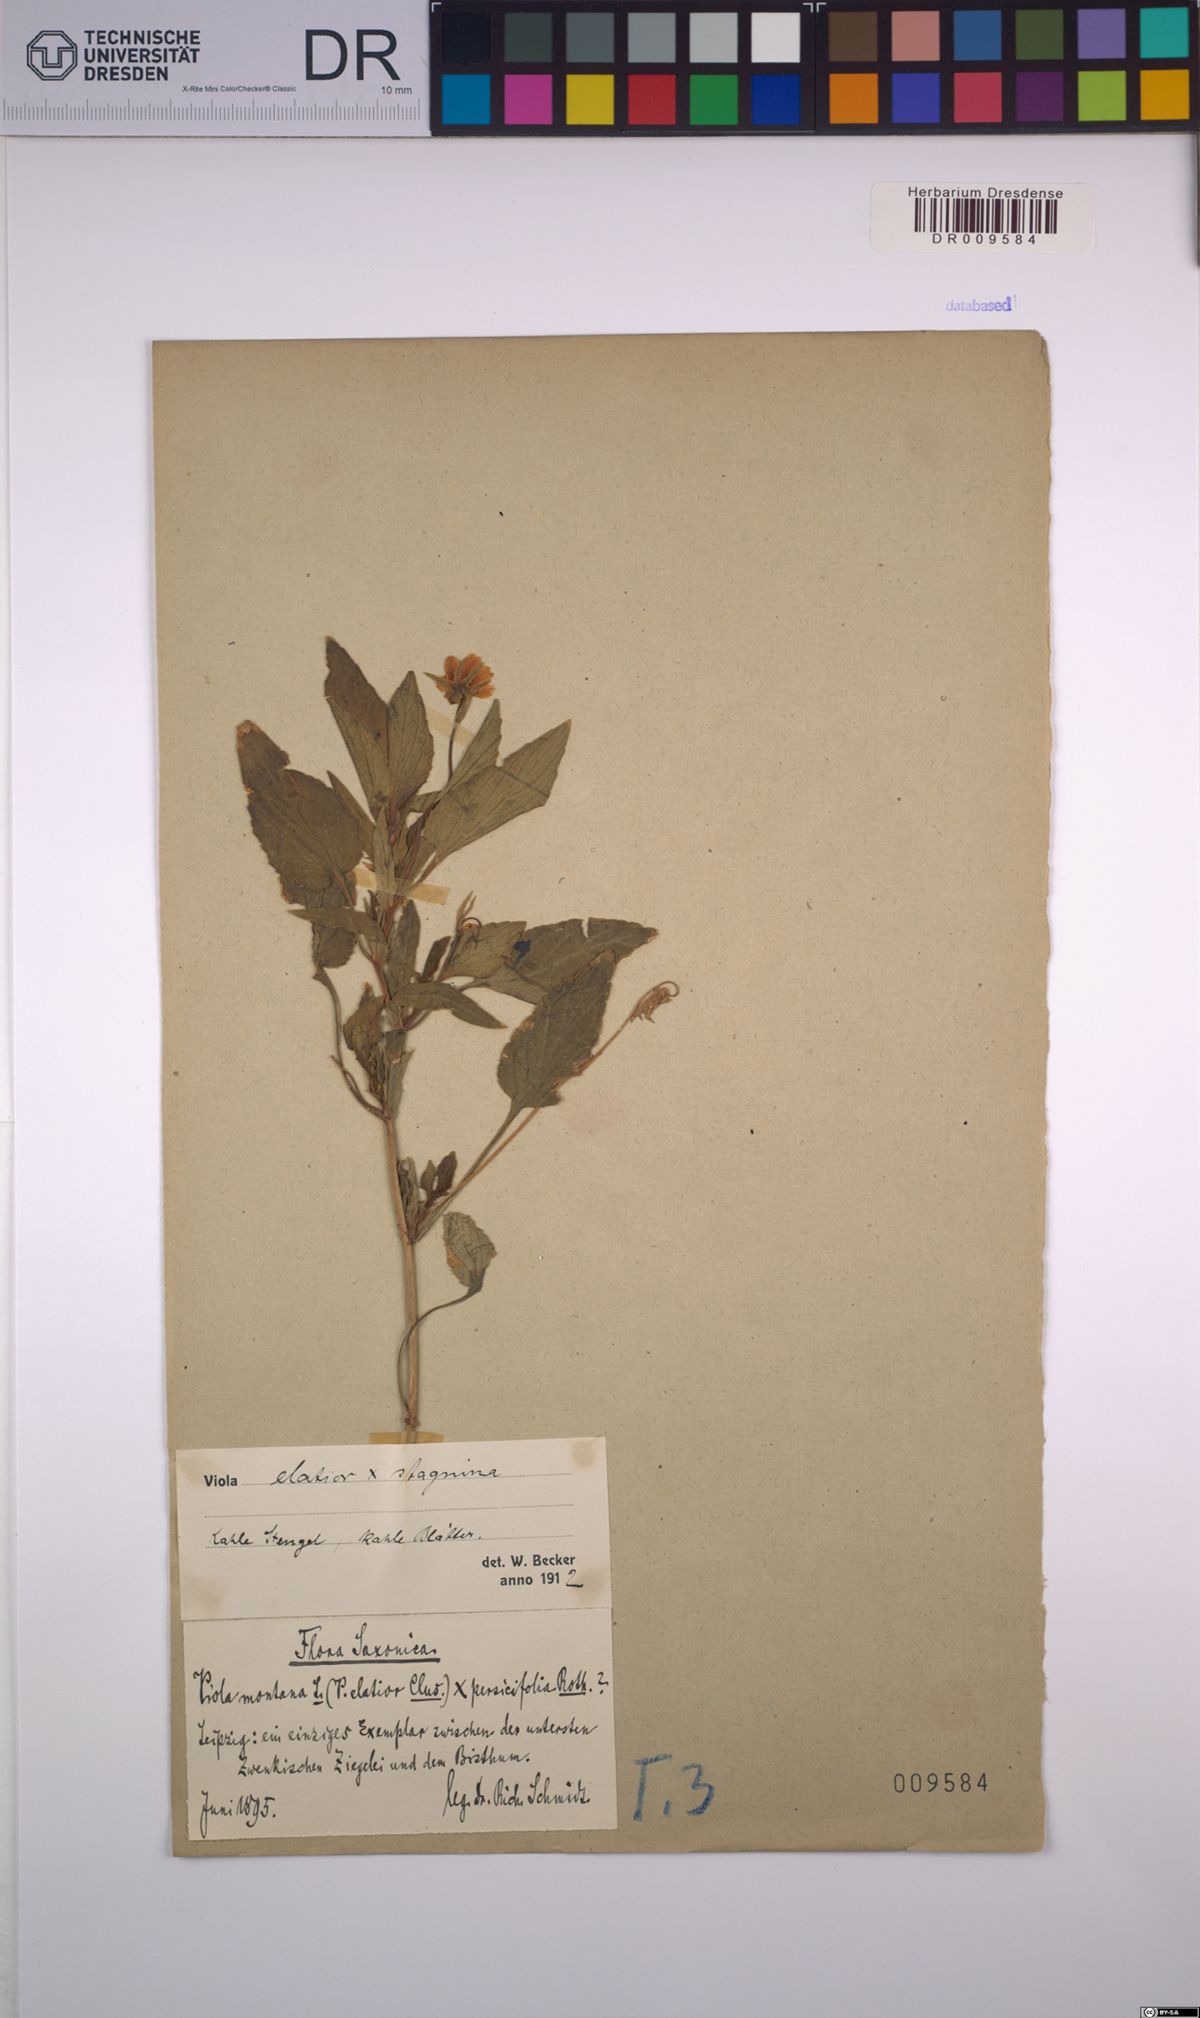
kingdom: Plantae
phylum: Tracheophyta
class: Magnoliopsida
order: Malpighiales
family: Violaceae
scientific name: Violaceae
